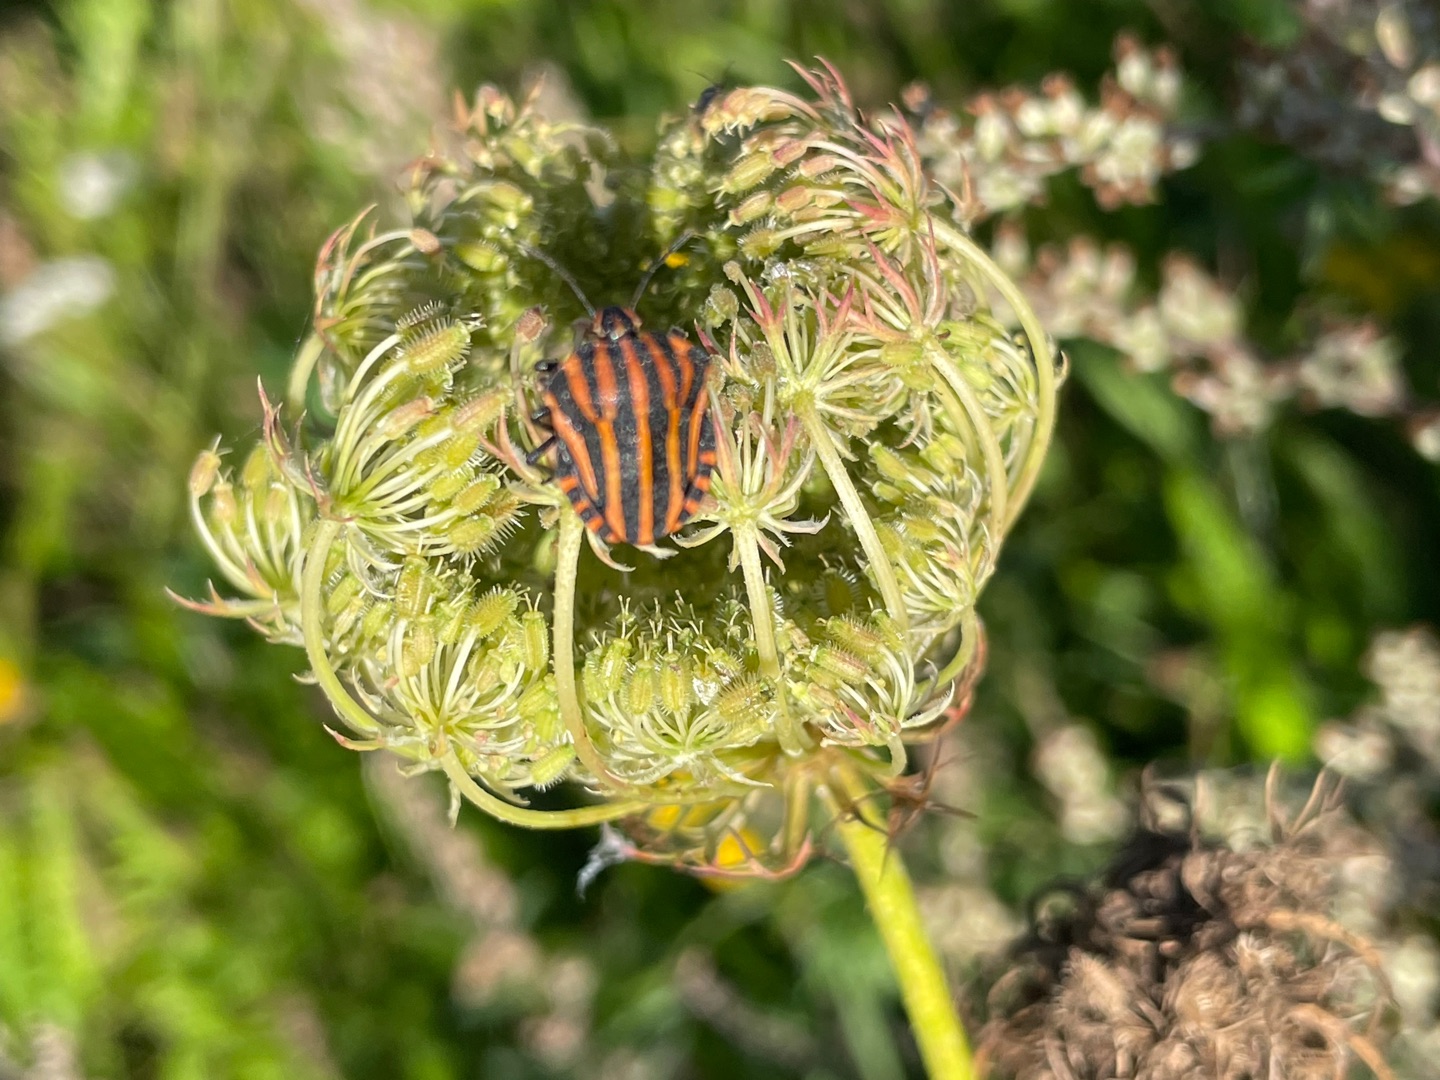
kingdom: Animalia
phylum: Arthropoda
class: Insecta
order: Hemiptera
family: Pentatomidae
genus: Graphosoma
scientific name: Graphosoma italicum
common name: Stribetæge
